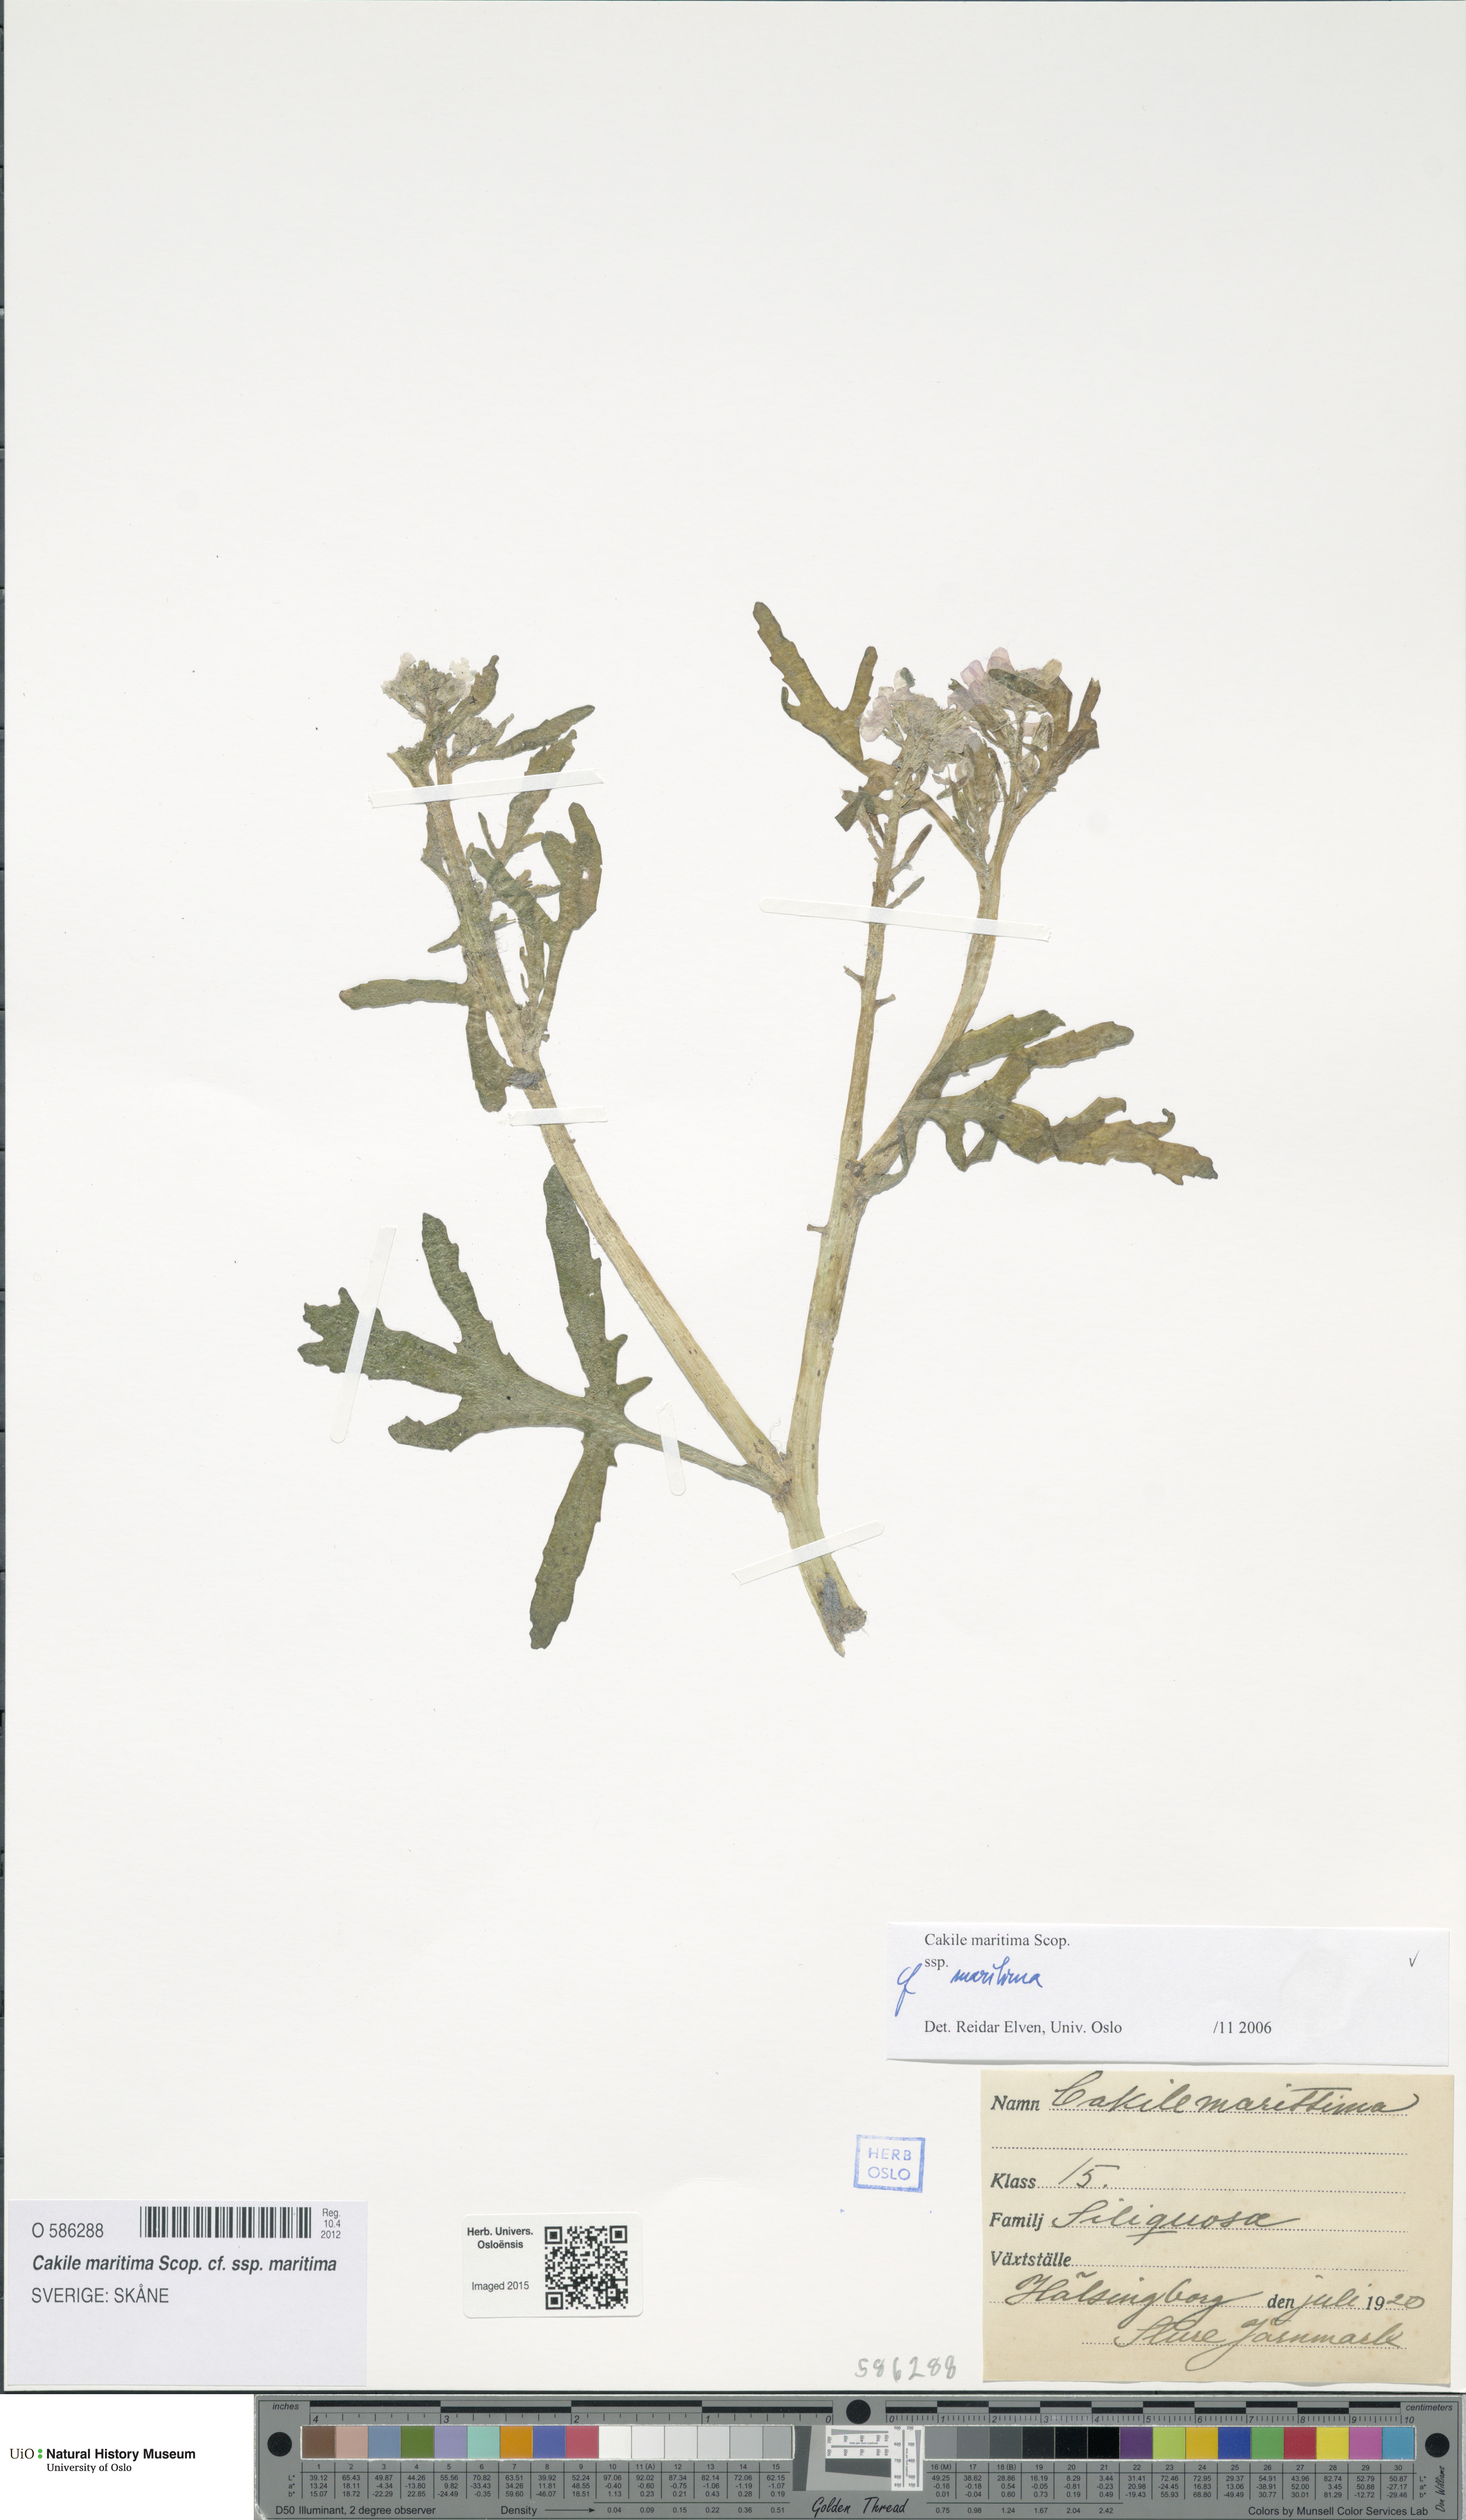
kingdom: Plantae
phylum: Tracheophyta
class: Magnoliopsida
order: Brassicales
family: Brassicaceae
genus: Cakile
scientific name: Cakile maritima
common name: Sea rocket
